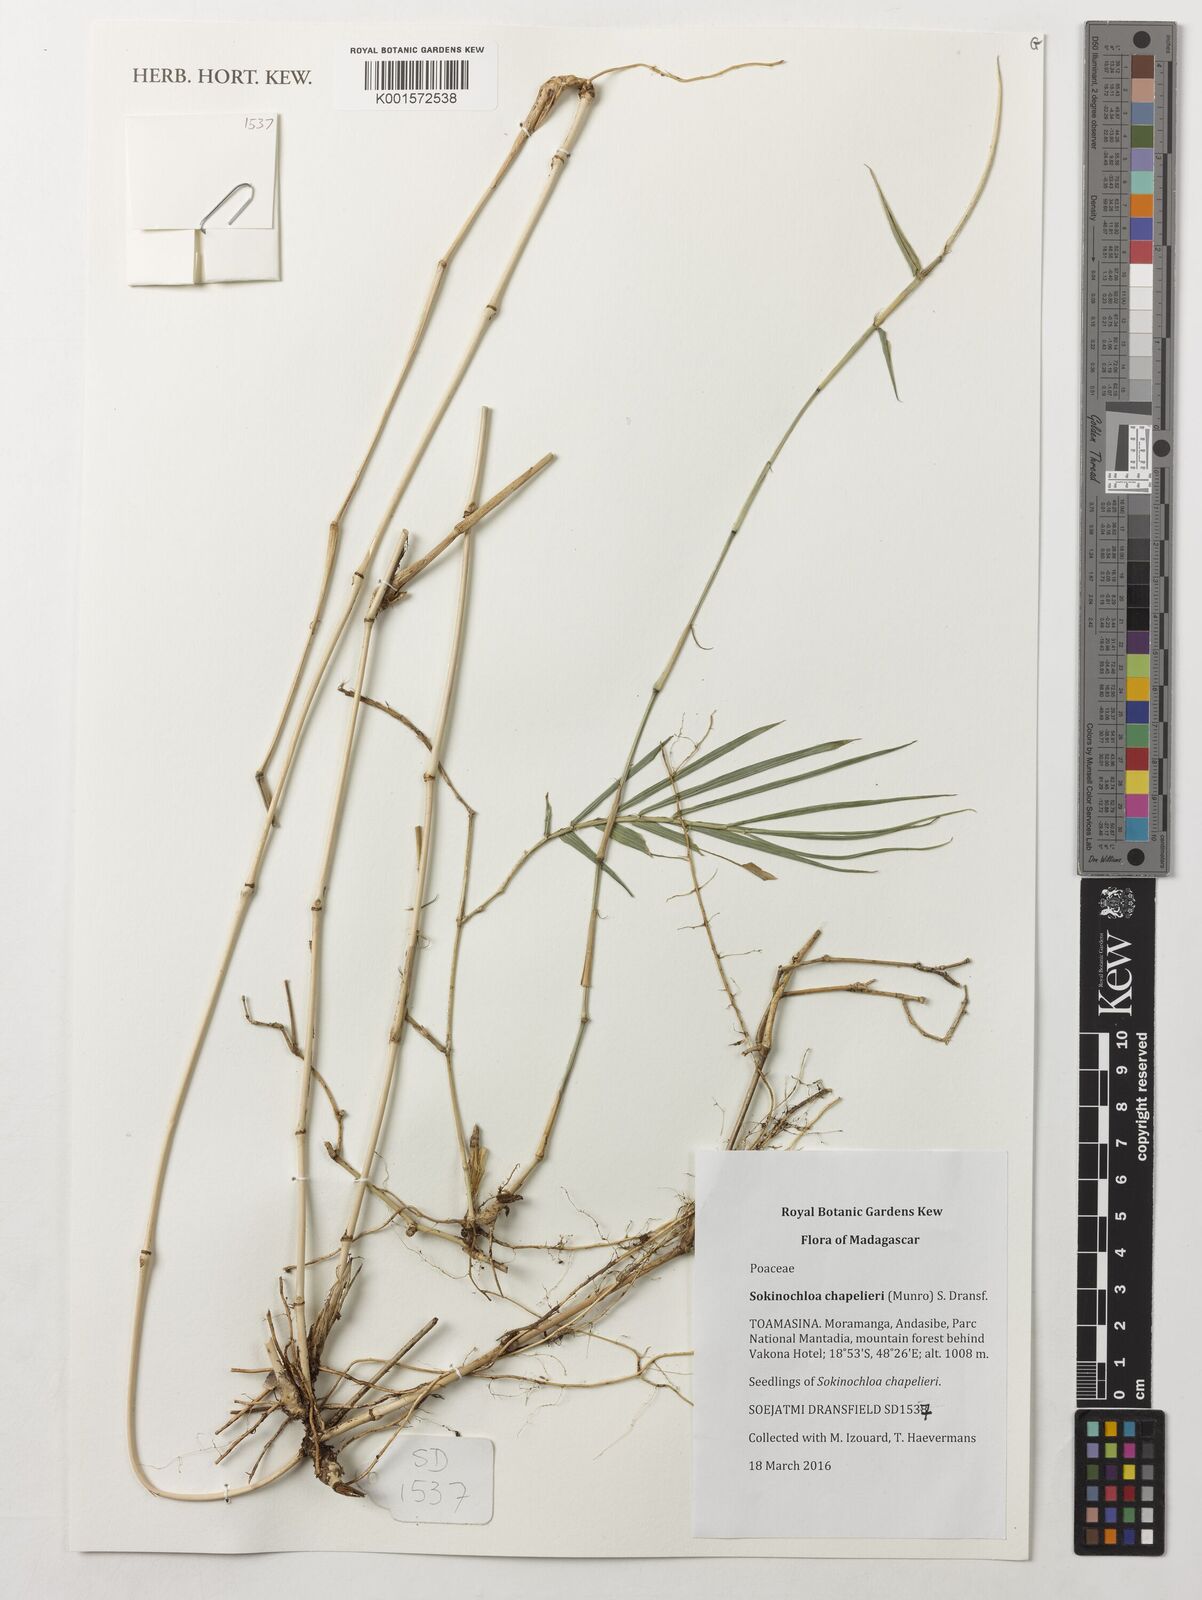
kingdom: Plantae
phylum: Tracheophyta
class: Liliopsida
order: Poales
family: Poaceae
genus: Sokinochloa
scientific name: Sokinochloa chapelieri
